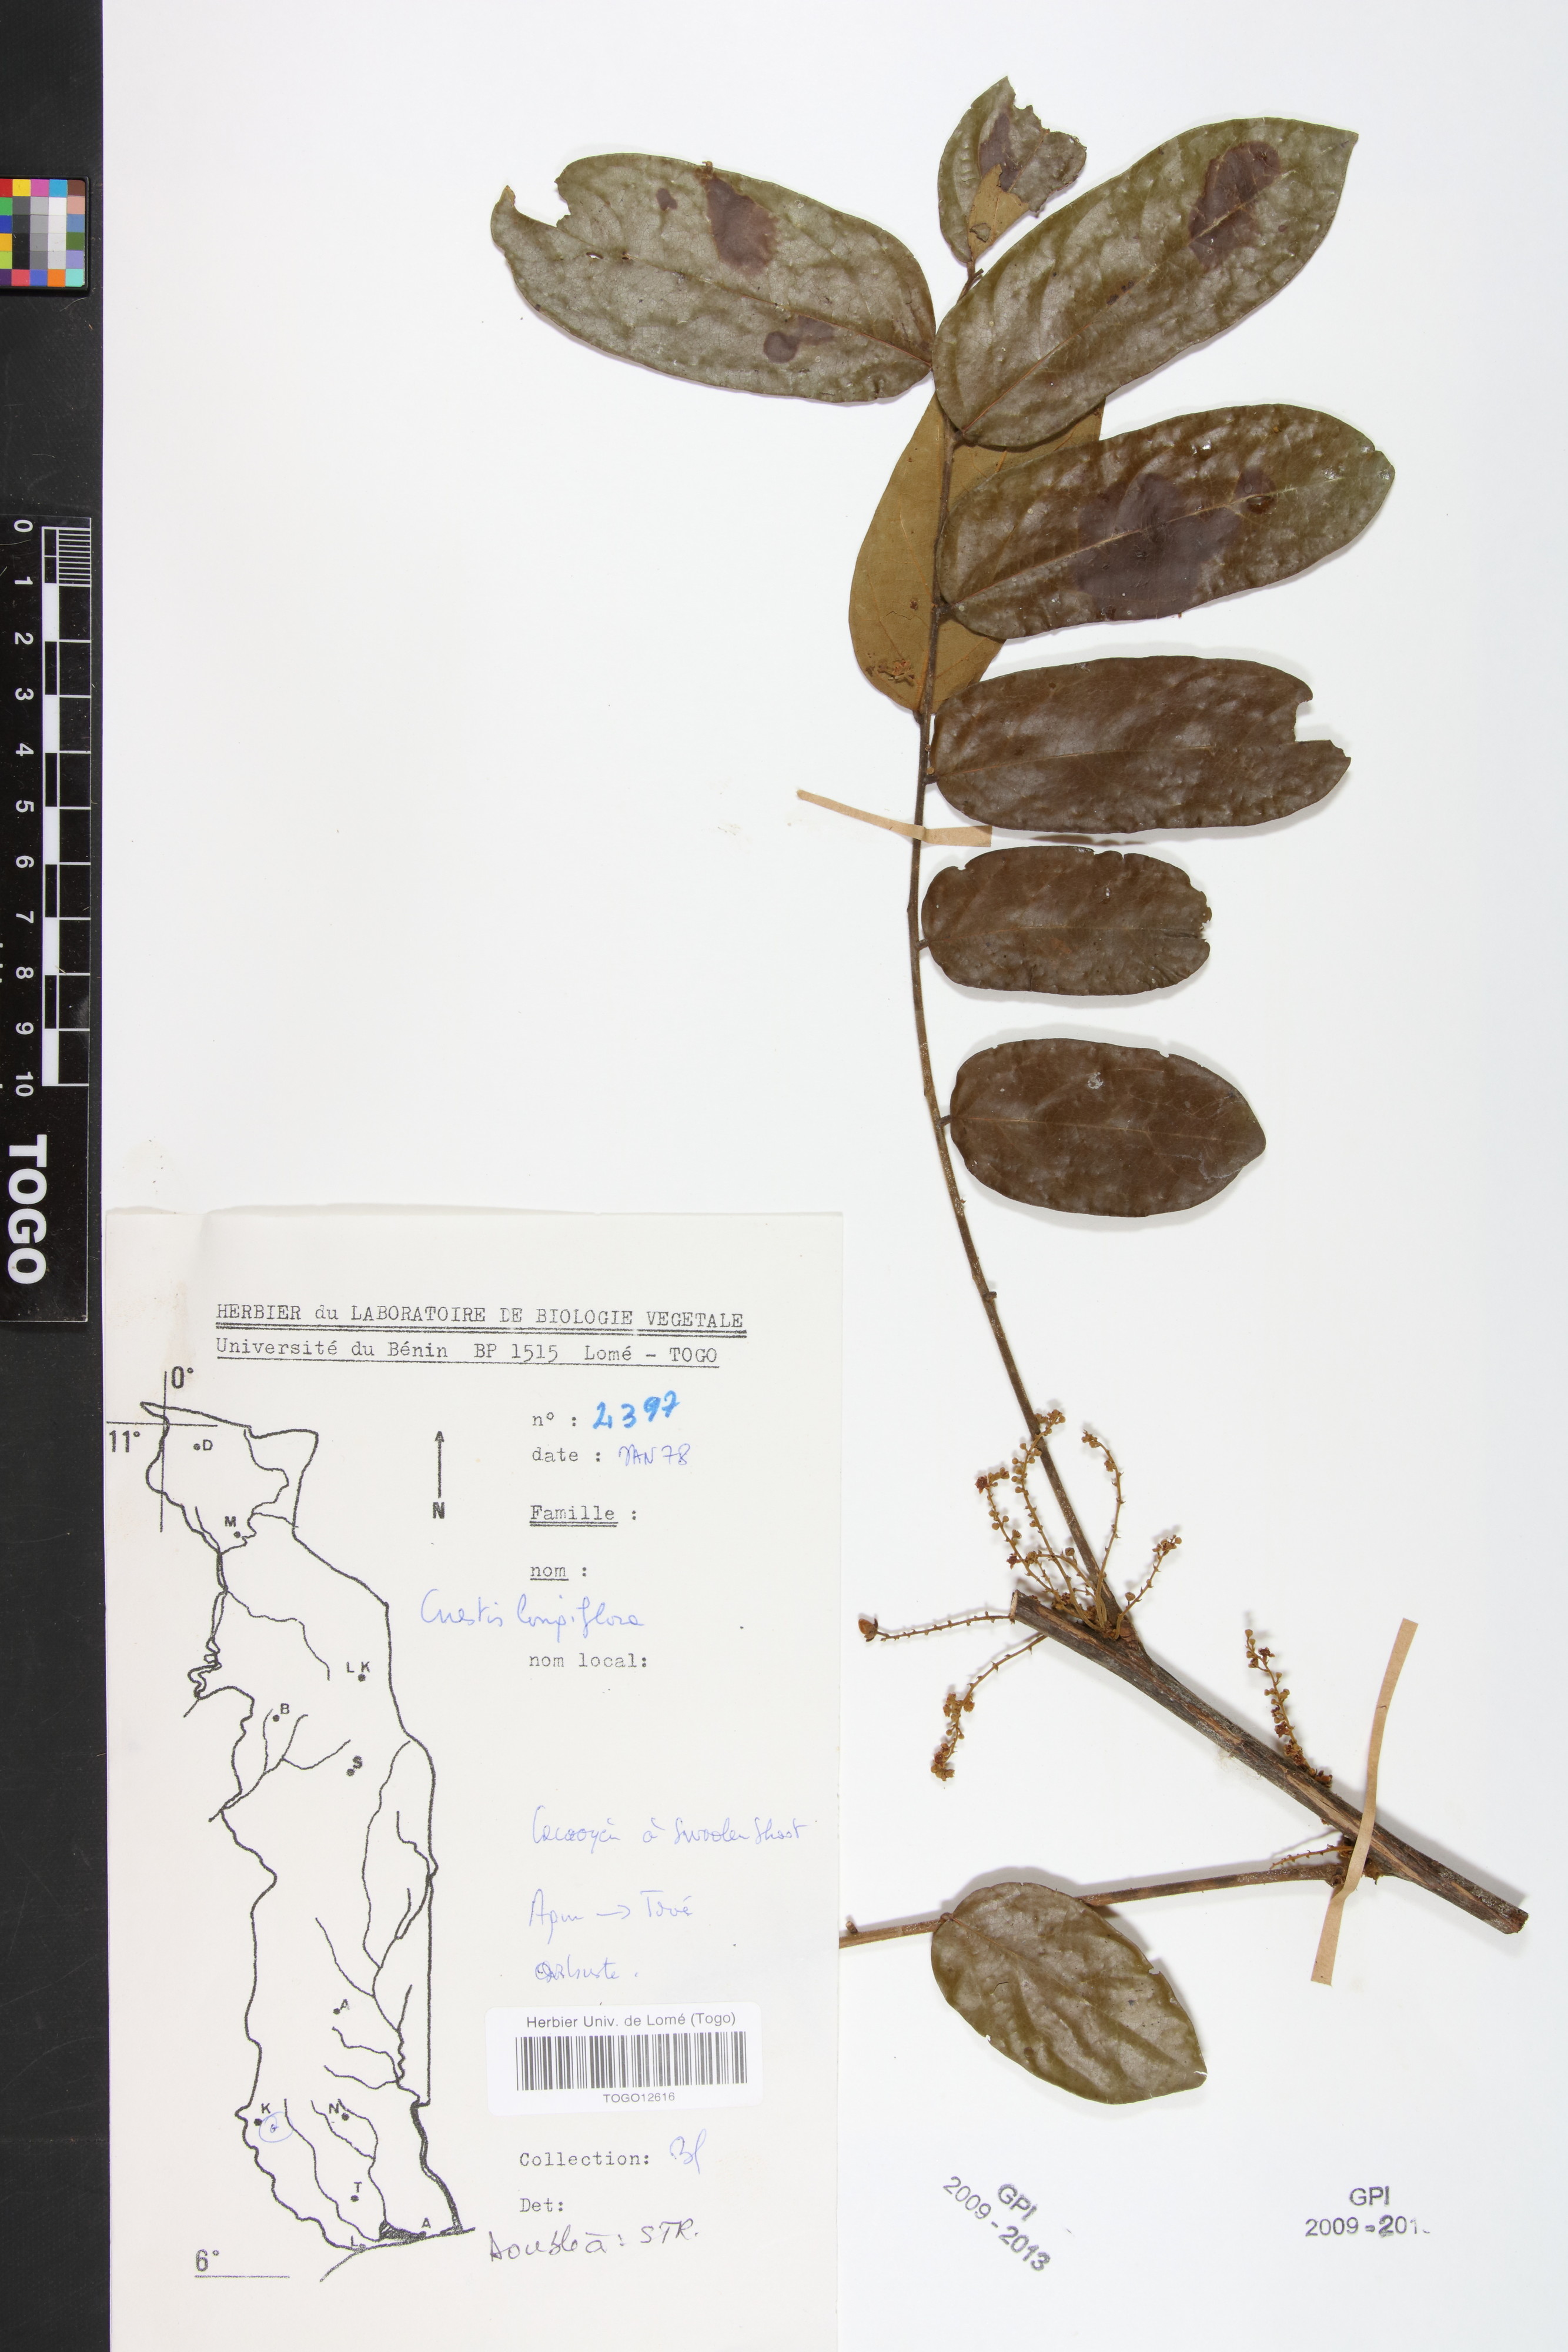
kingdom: Plantae
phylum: Tracheophyta
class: Magnoliopsida
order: Oxalidales
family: Connaraceae
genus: Cnestis
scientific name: Cnestis corniculata
